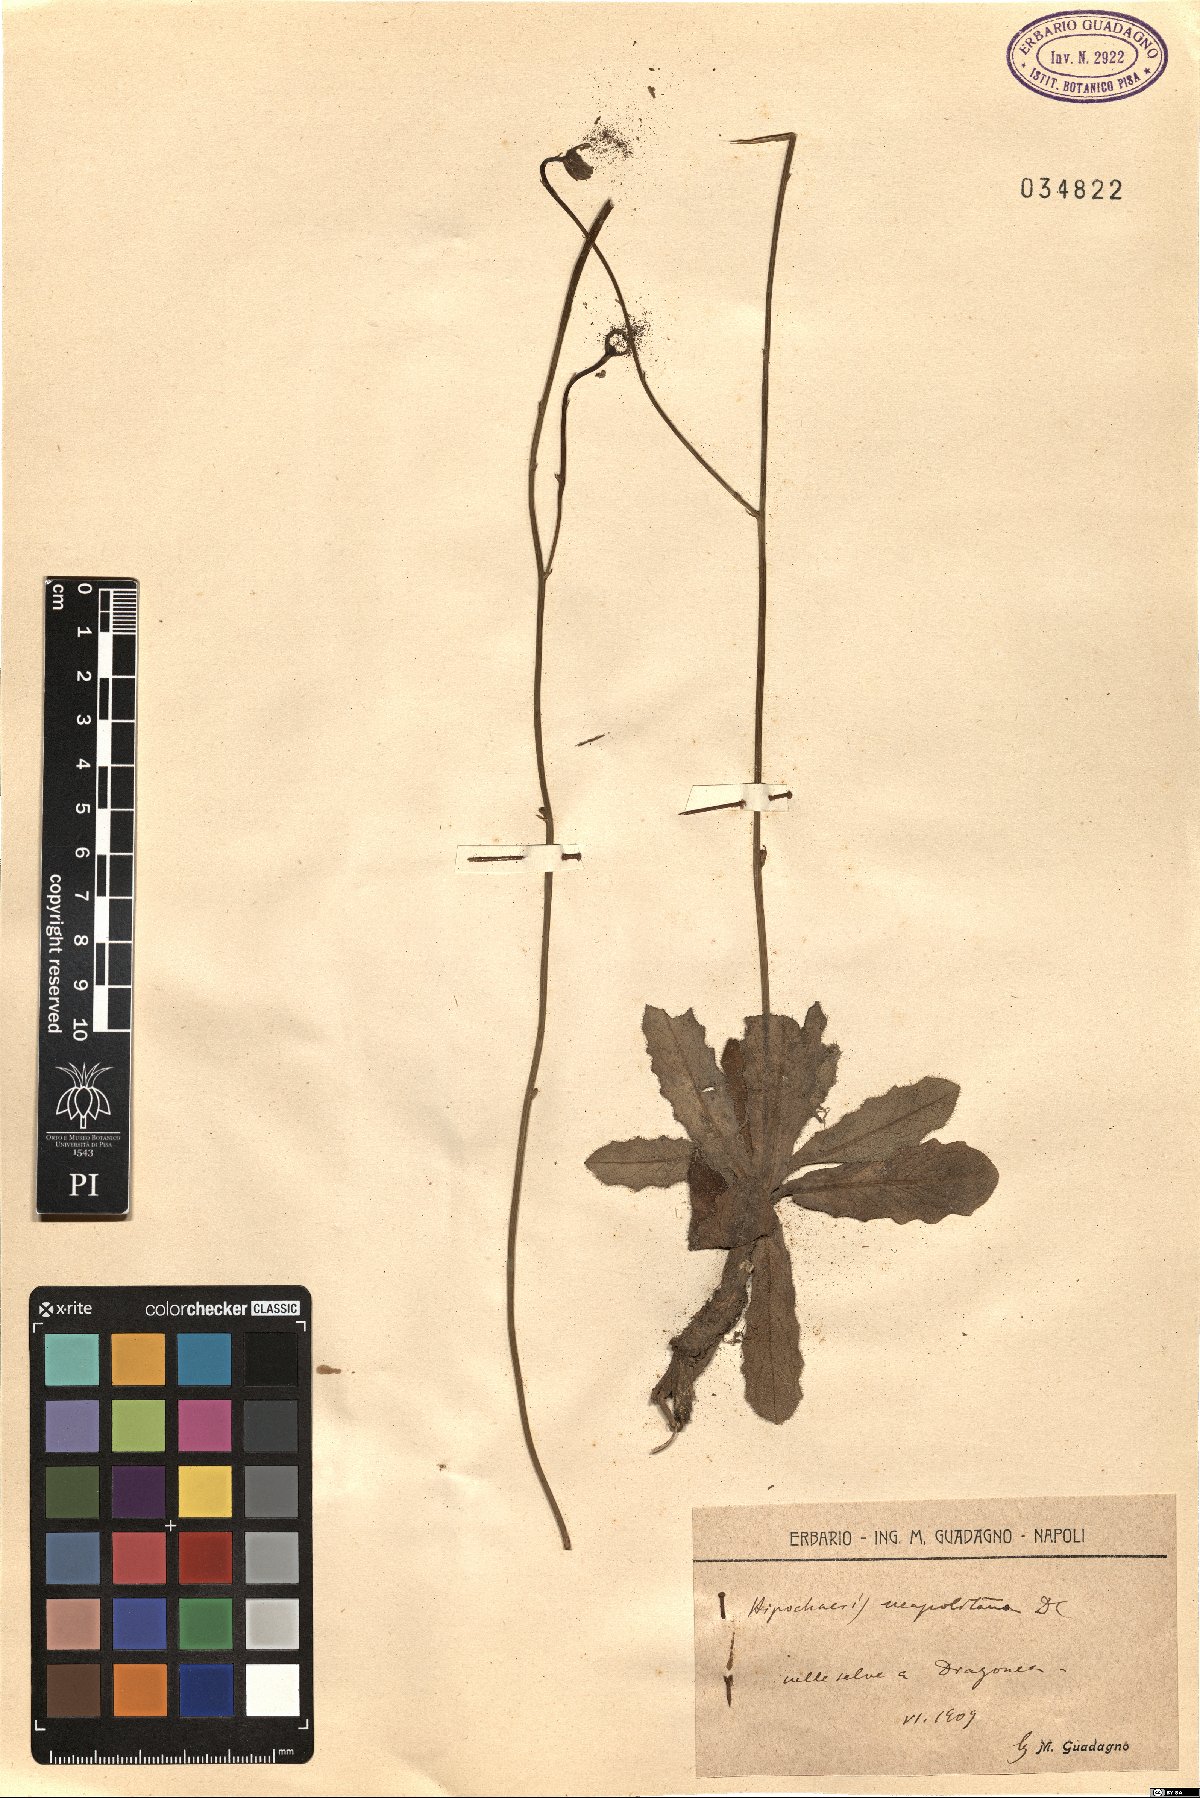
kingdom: Plantae
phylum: Tracheophyta
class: Magnoliopsida
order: Asterales
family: Asteraceae
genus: Hypochaeris
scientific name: Hypochaeris radicata
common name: Flatweed
